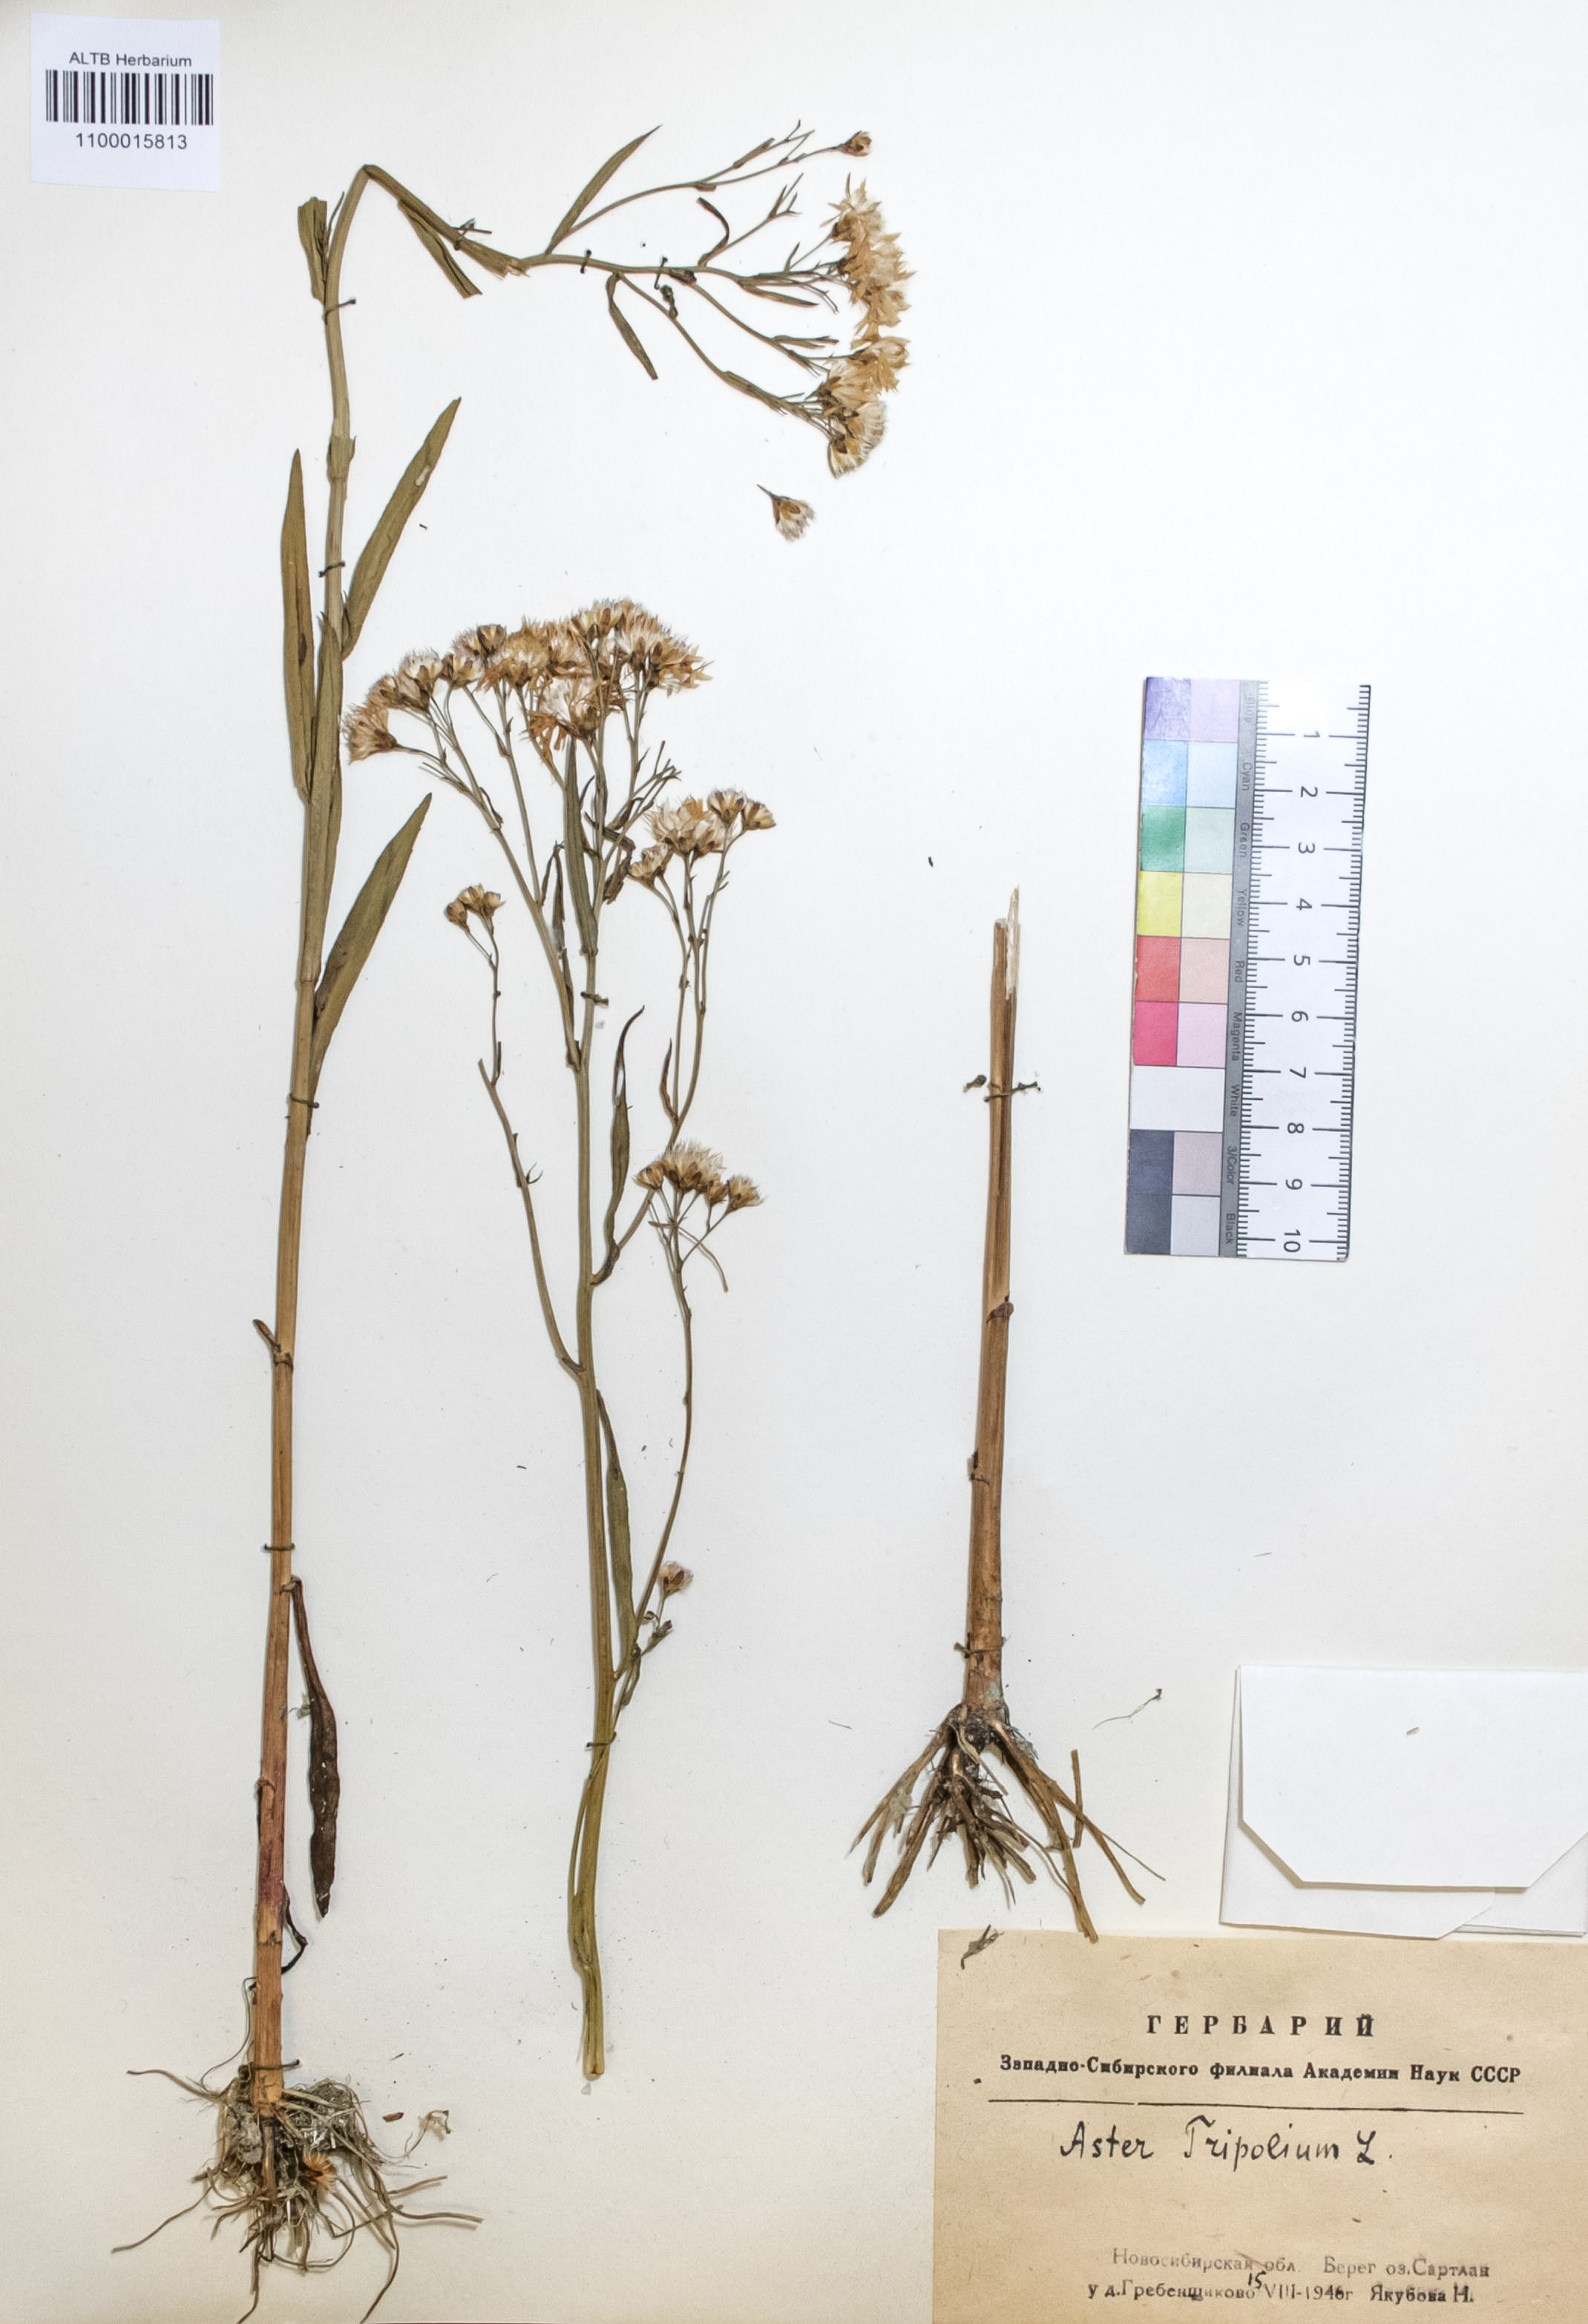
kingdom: Plantae
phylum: Tracheophyta
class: Magnoliopsida
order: Asterales
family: Asteraceae
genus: Tripolium
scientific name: Tripolium pannonicum
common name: Sea aster
